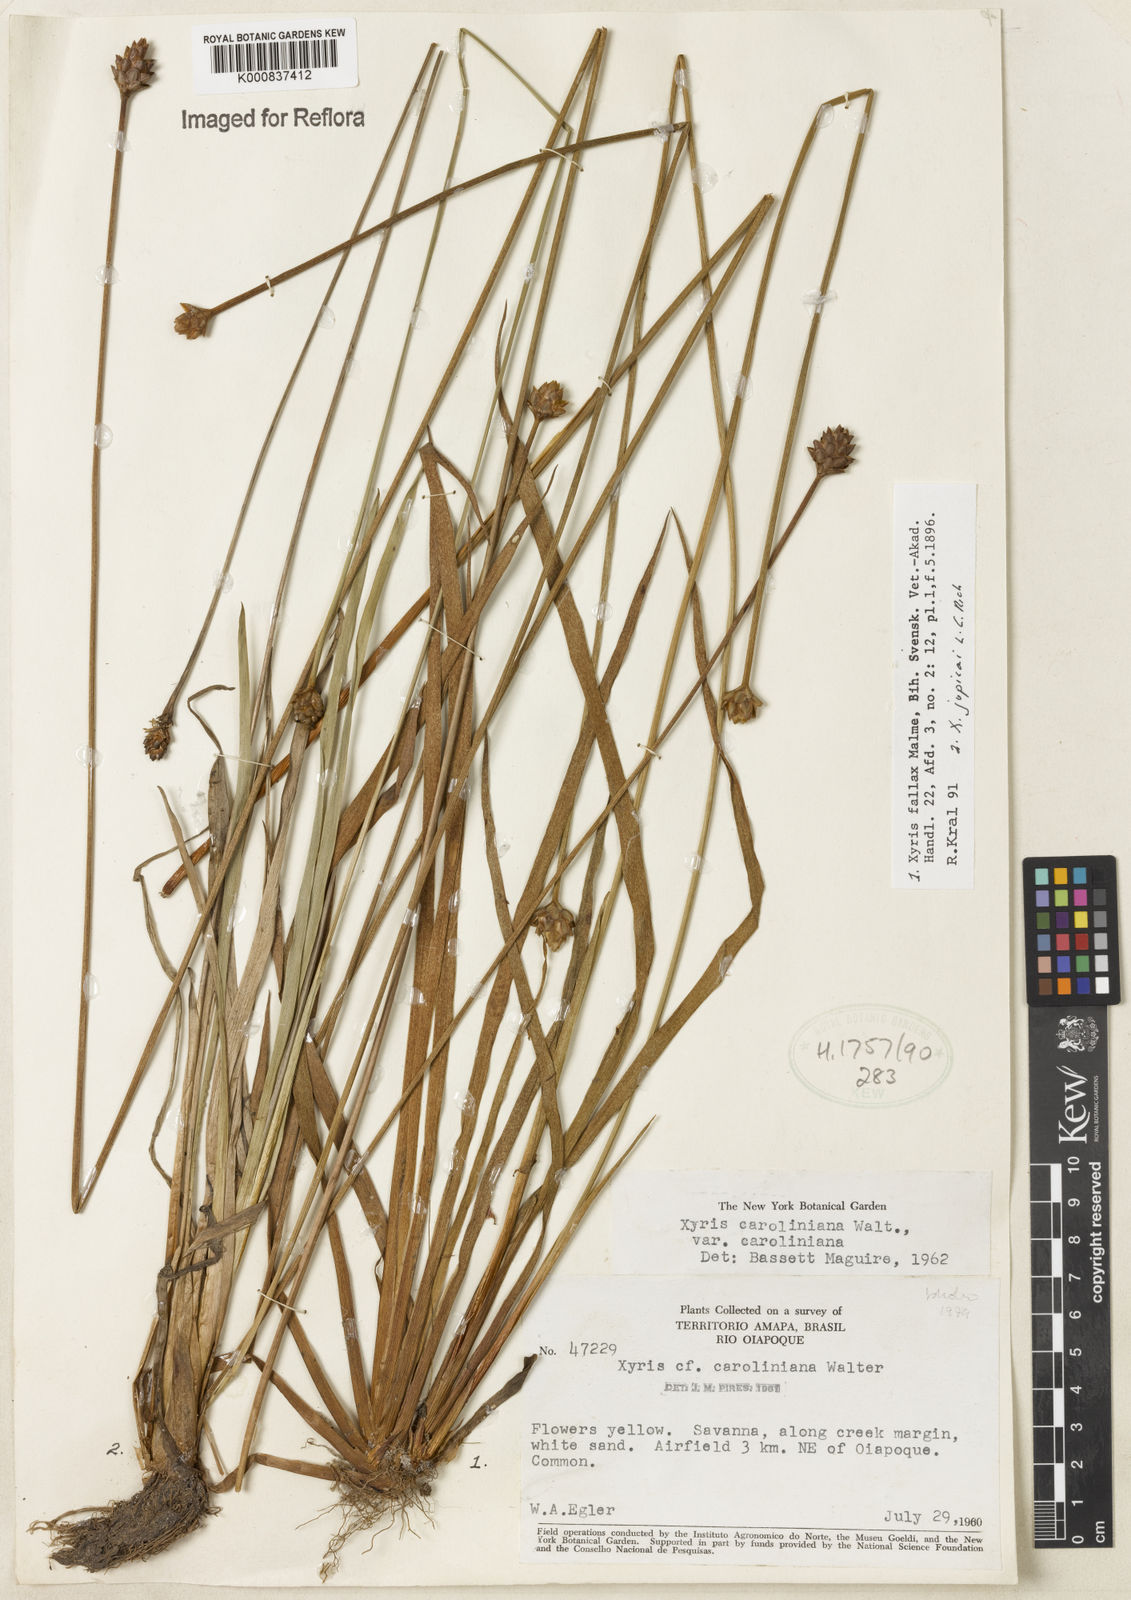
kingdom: Plantae
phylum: Tracheophyta
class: Liliopsida
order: Poales
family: Xyridaceae
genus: Xyris
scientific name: Xyris fallax
